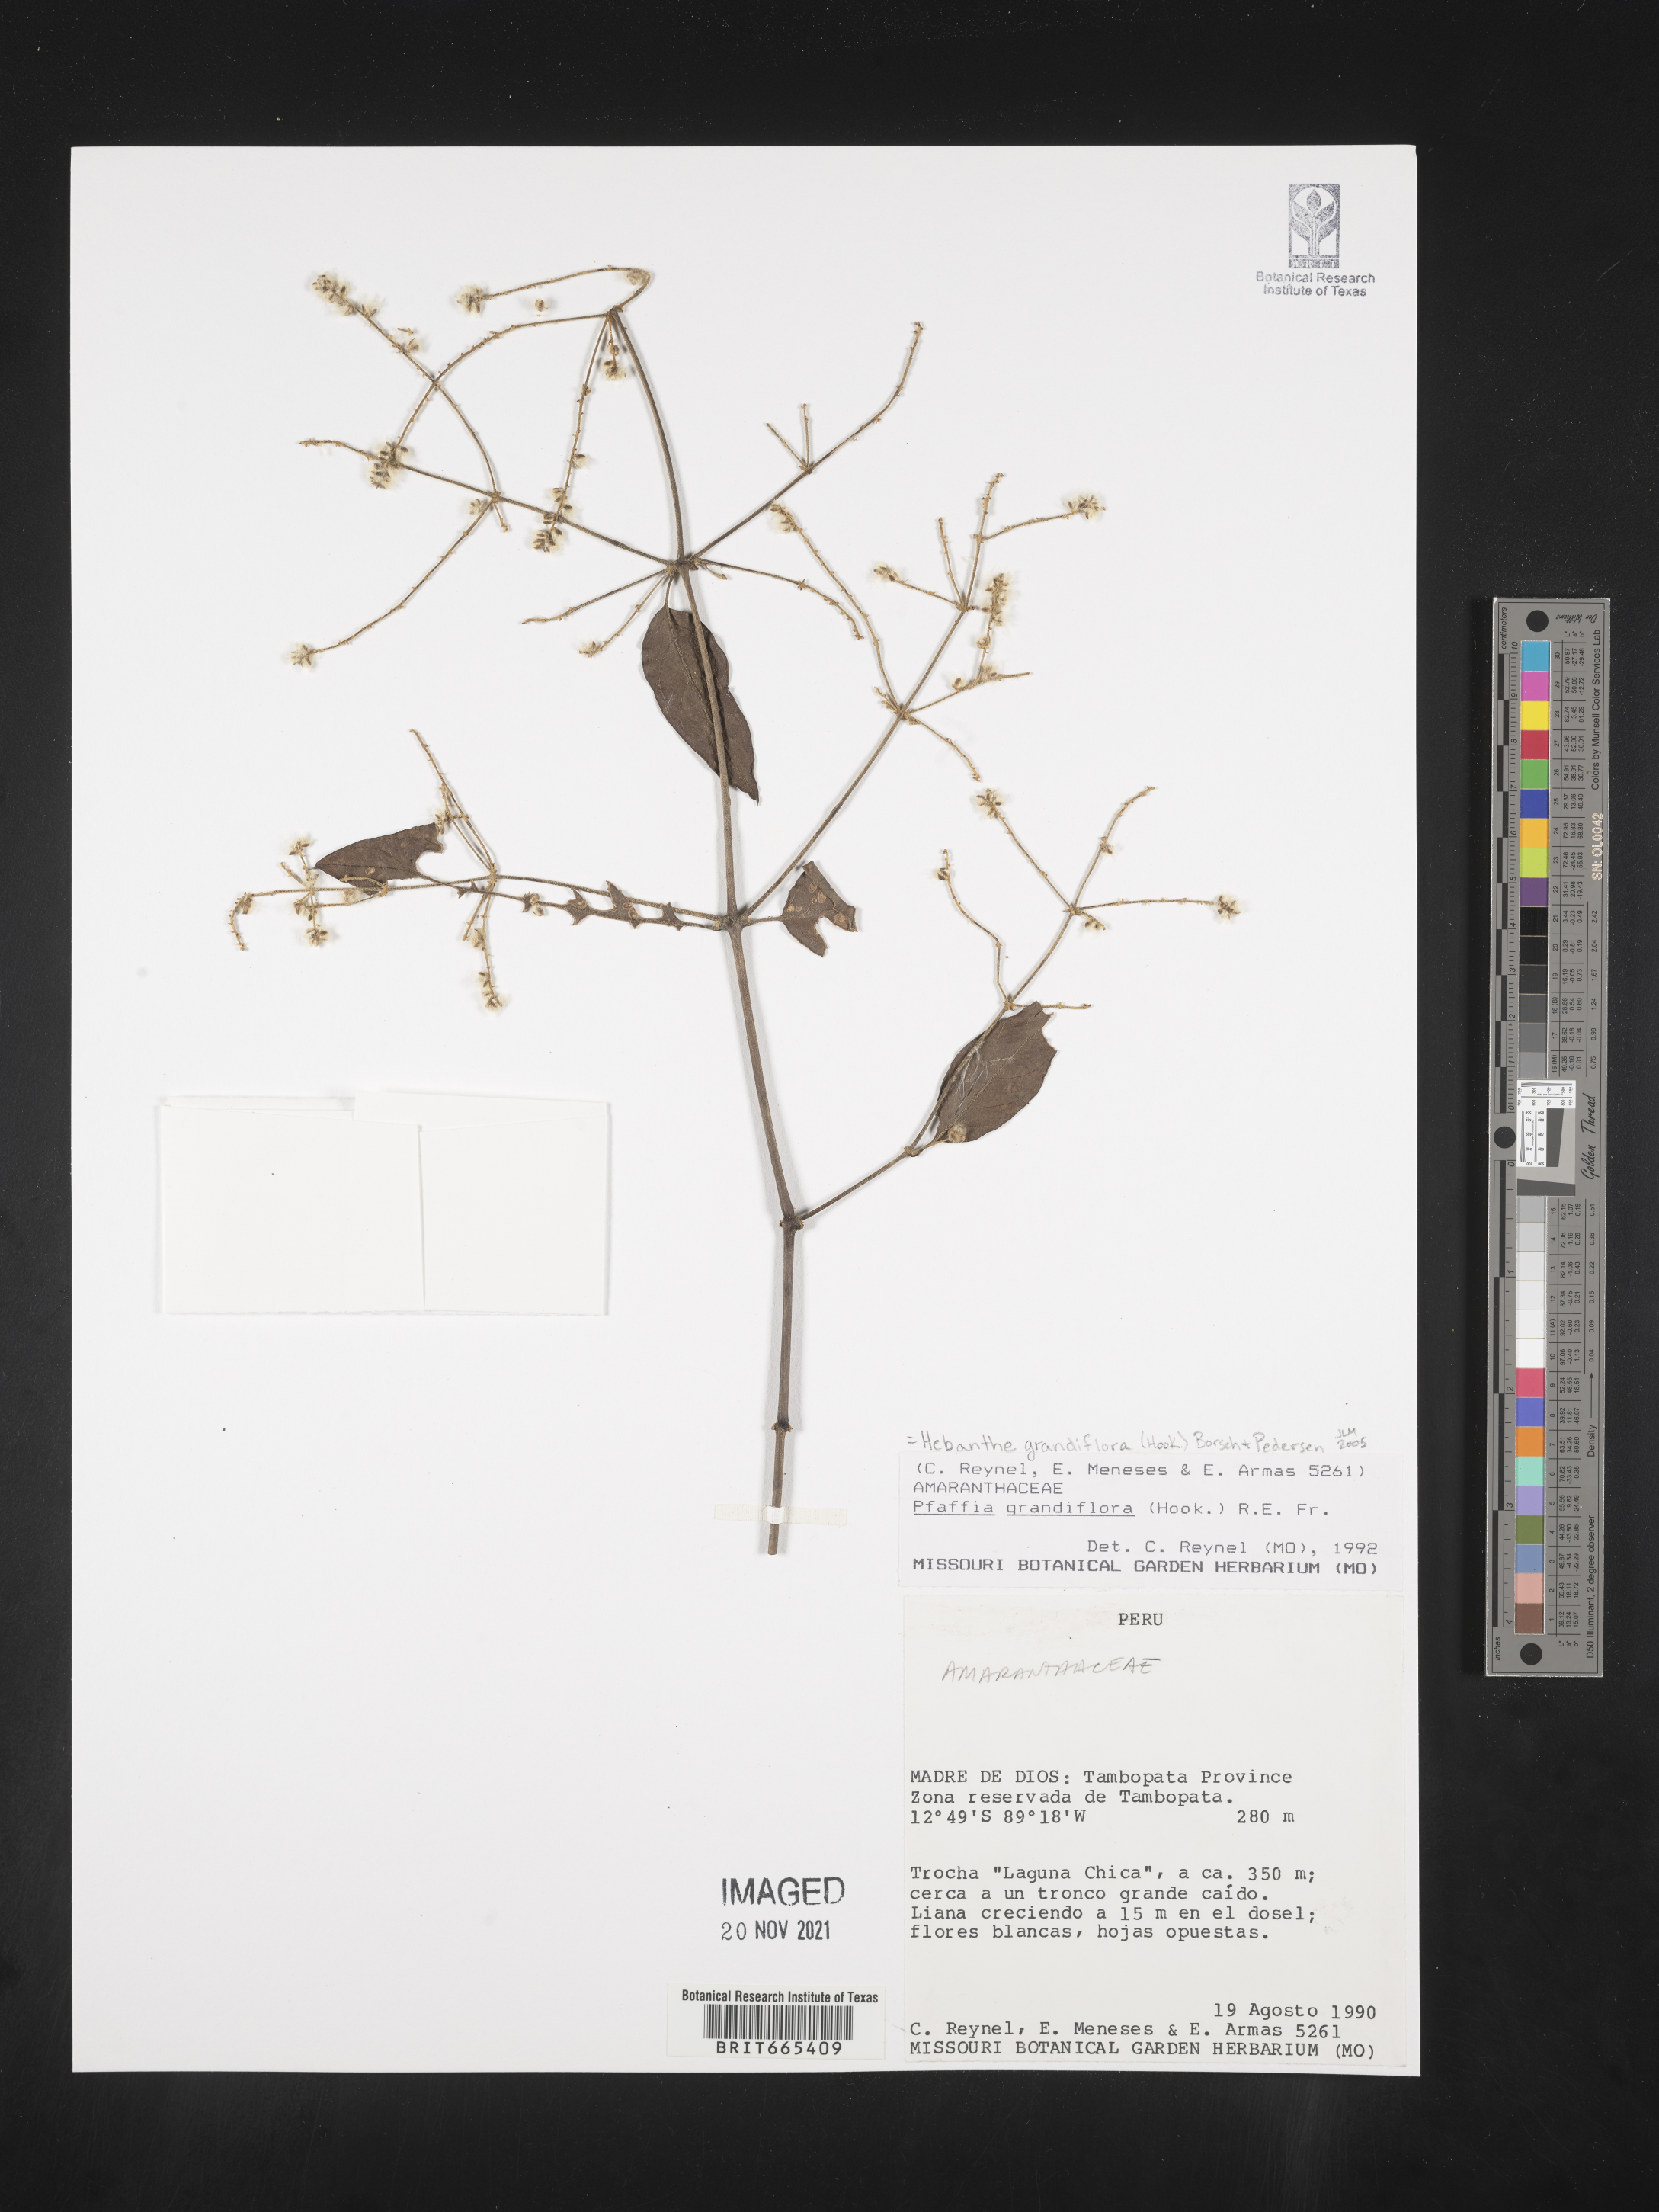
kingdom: Plantae
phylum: Tracheophyta
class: Magnoliopsida
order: Caryophyllales
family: Amaranthaceae
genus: Pfaffia
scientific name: Pfaffia
